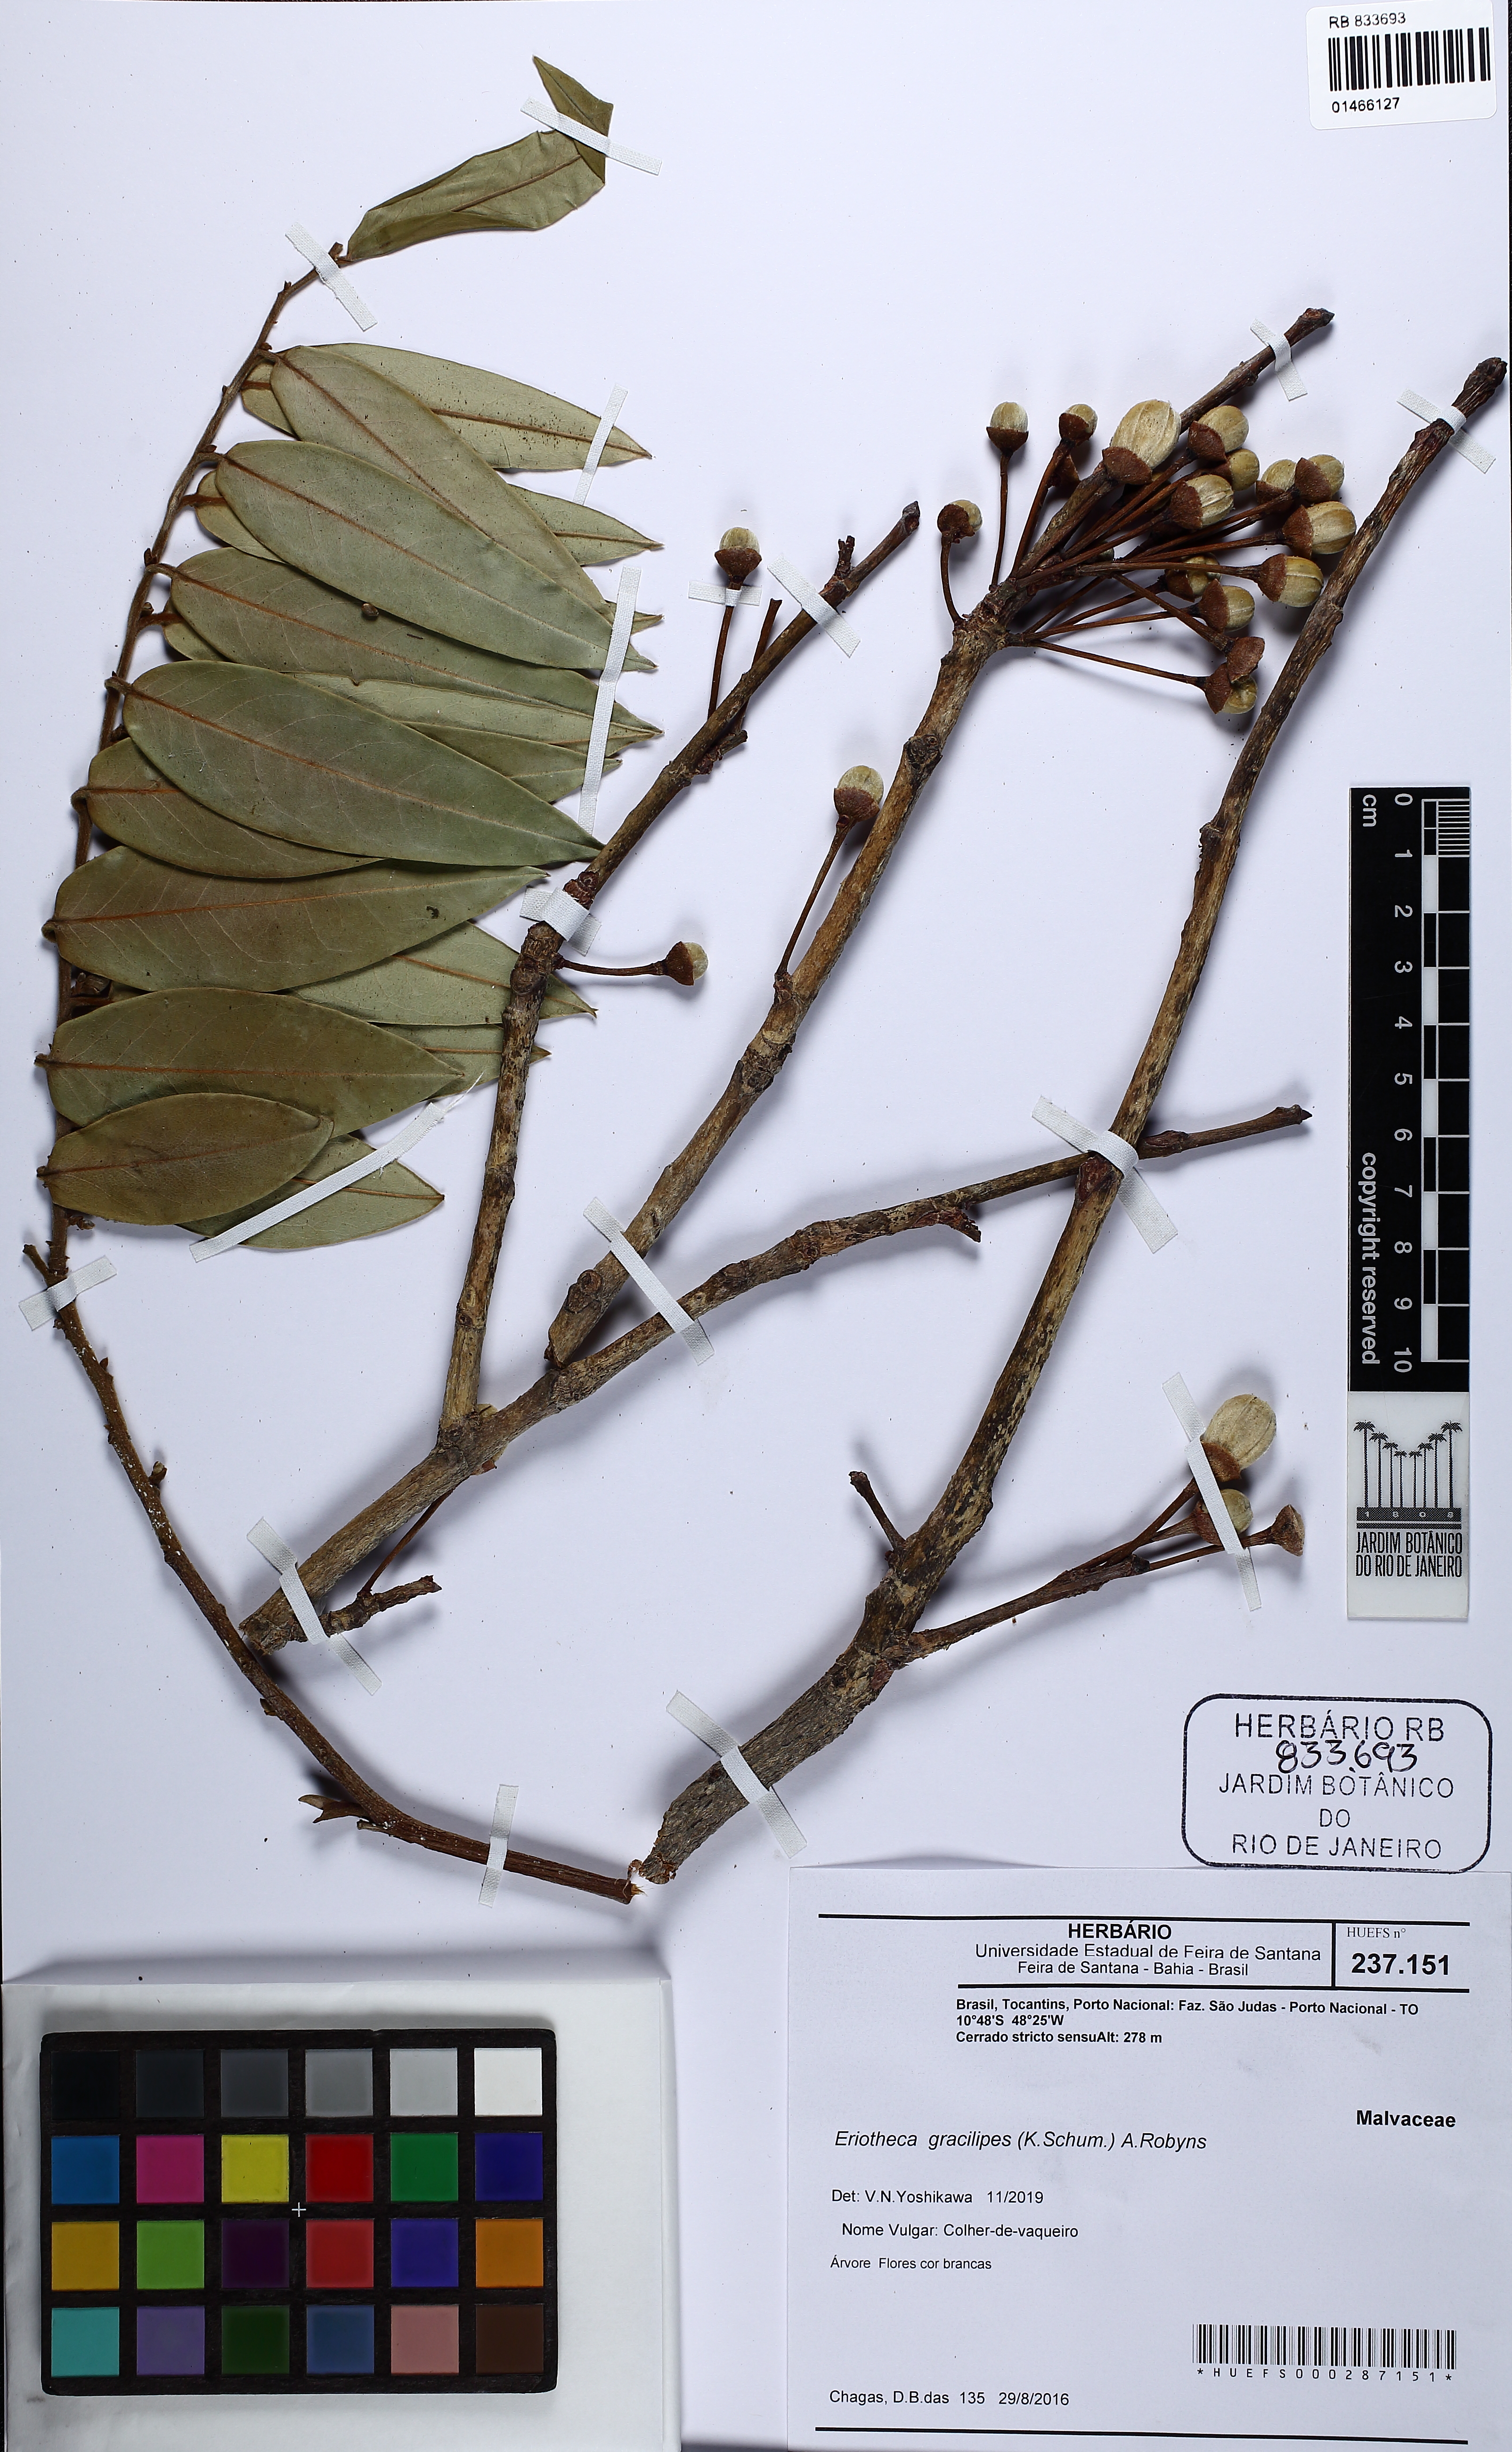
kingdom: Plantae
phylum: Tracheophyta
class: Magnoliopsida
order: Malvales
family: Malvaceae
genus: Eriotheca
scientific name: Eriotheca gracilipes
